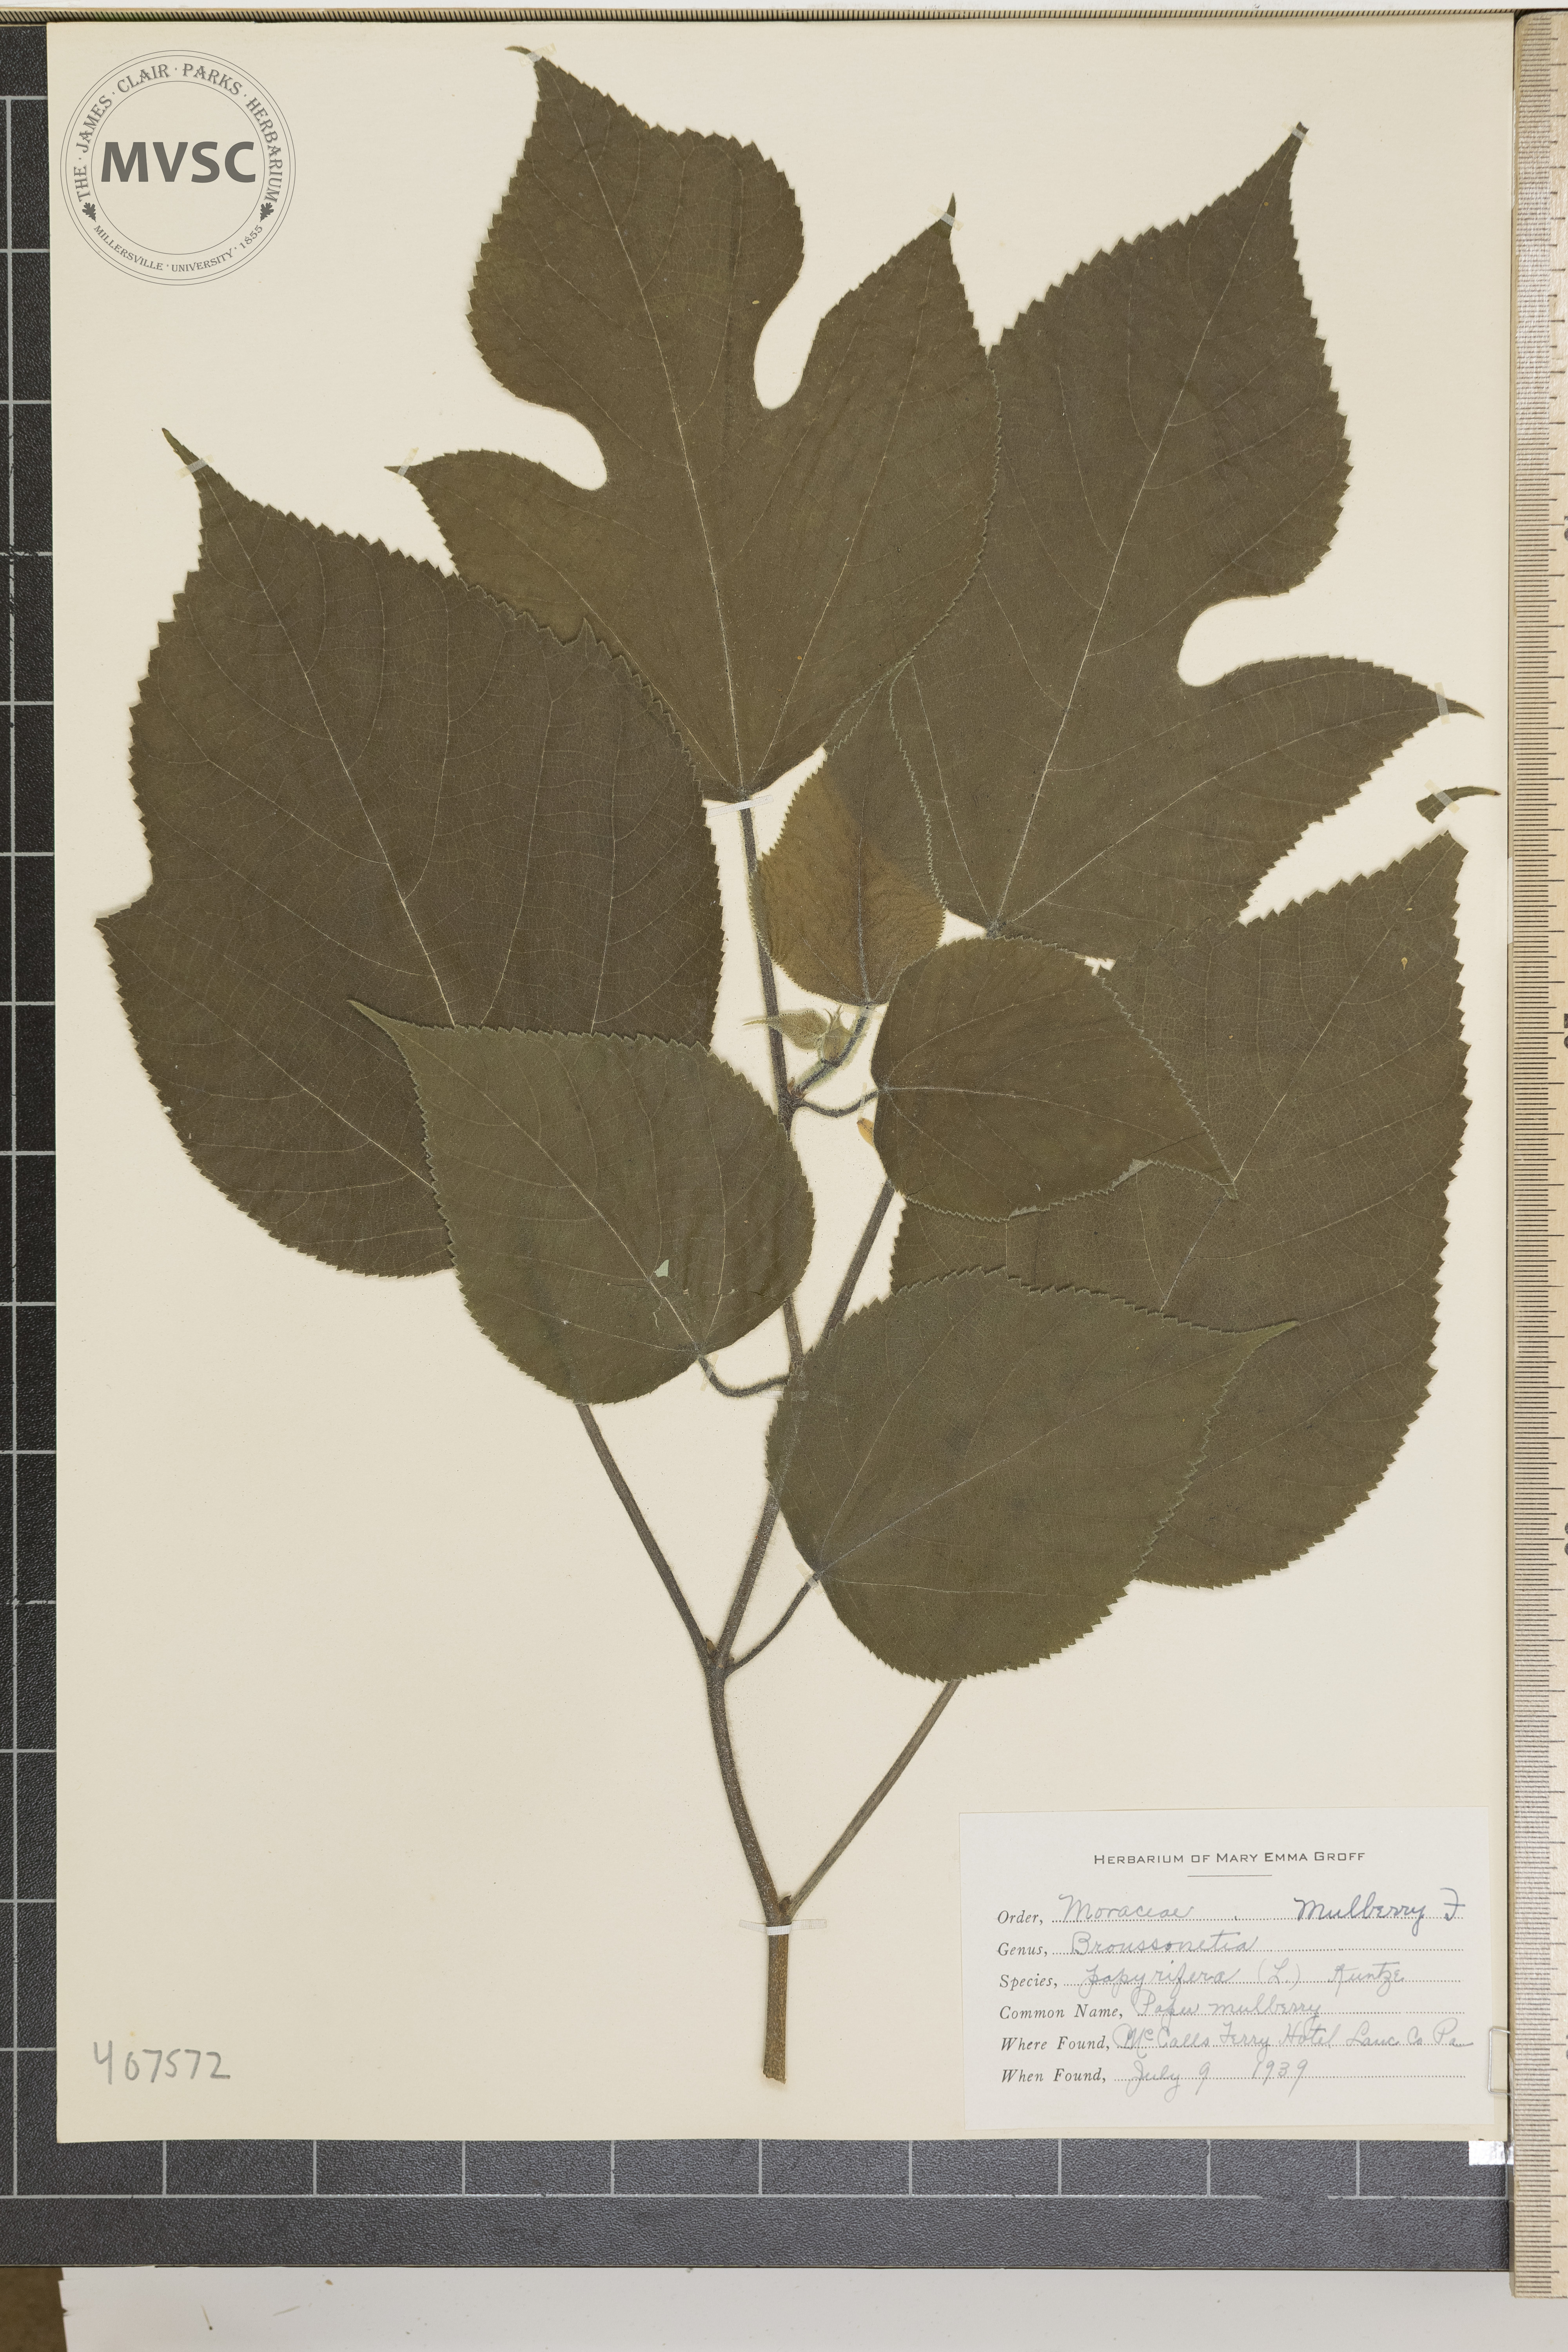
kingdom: Plantae
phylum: Tracheophyta
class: Magnoliopsida
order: Rosales
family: Moraceae
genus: Broussonetia
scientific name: Broussonetia papyrifera
